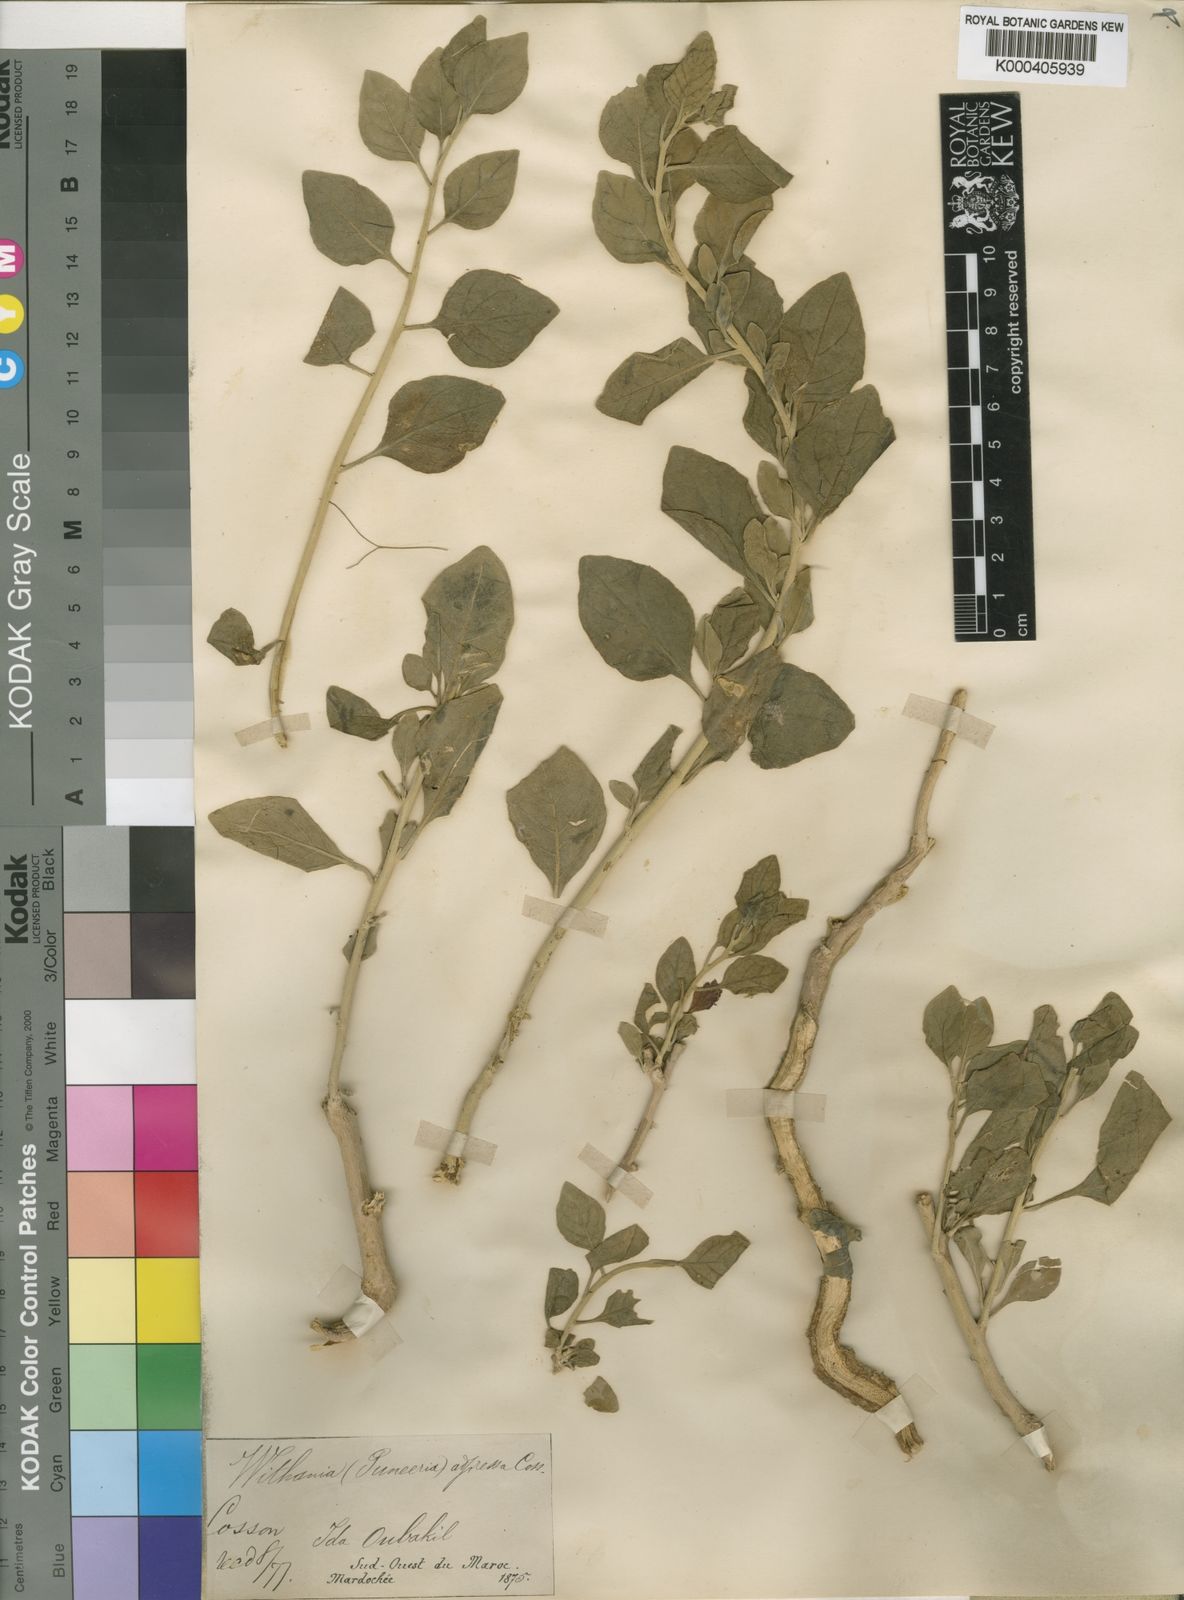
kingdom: Plantae
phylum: Tracheophyta
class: Magnoliopsida
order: Solanales
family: Solanaceae
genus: Withania
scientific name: Withania adpressa
